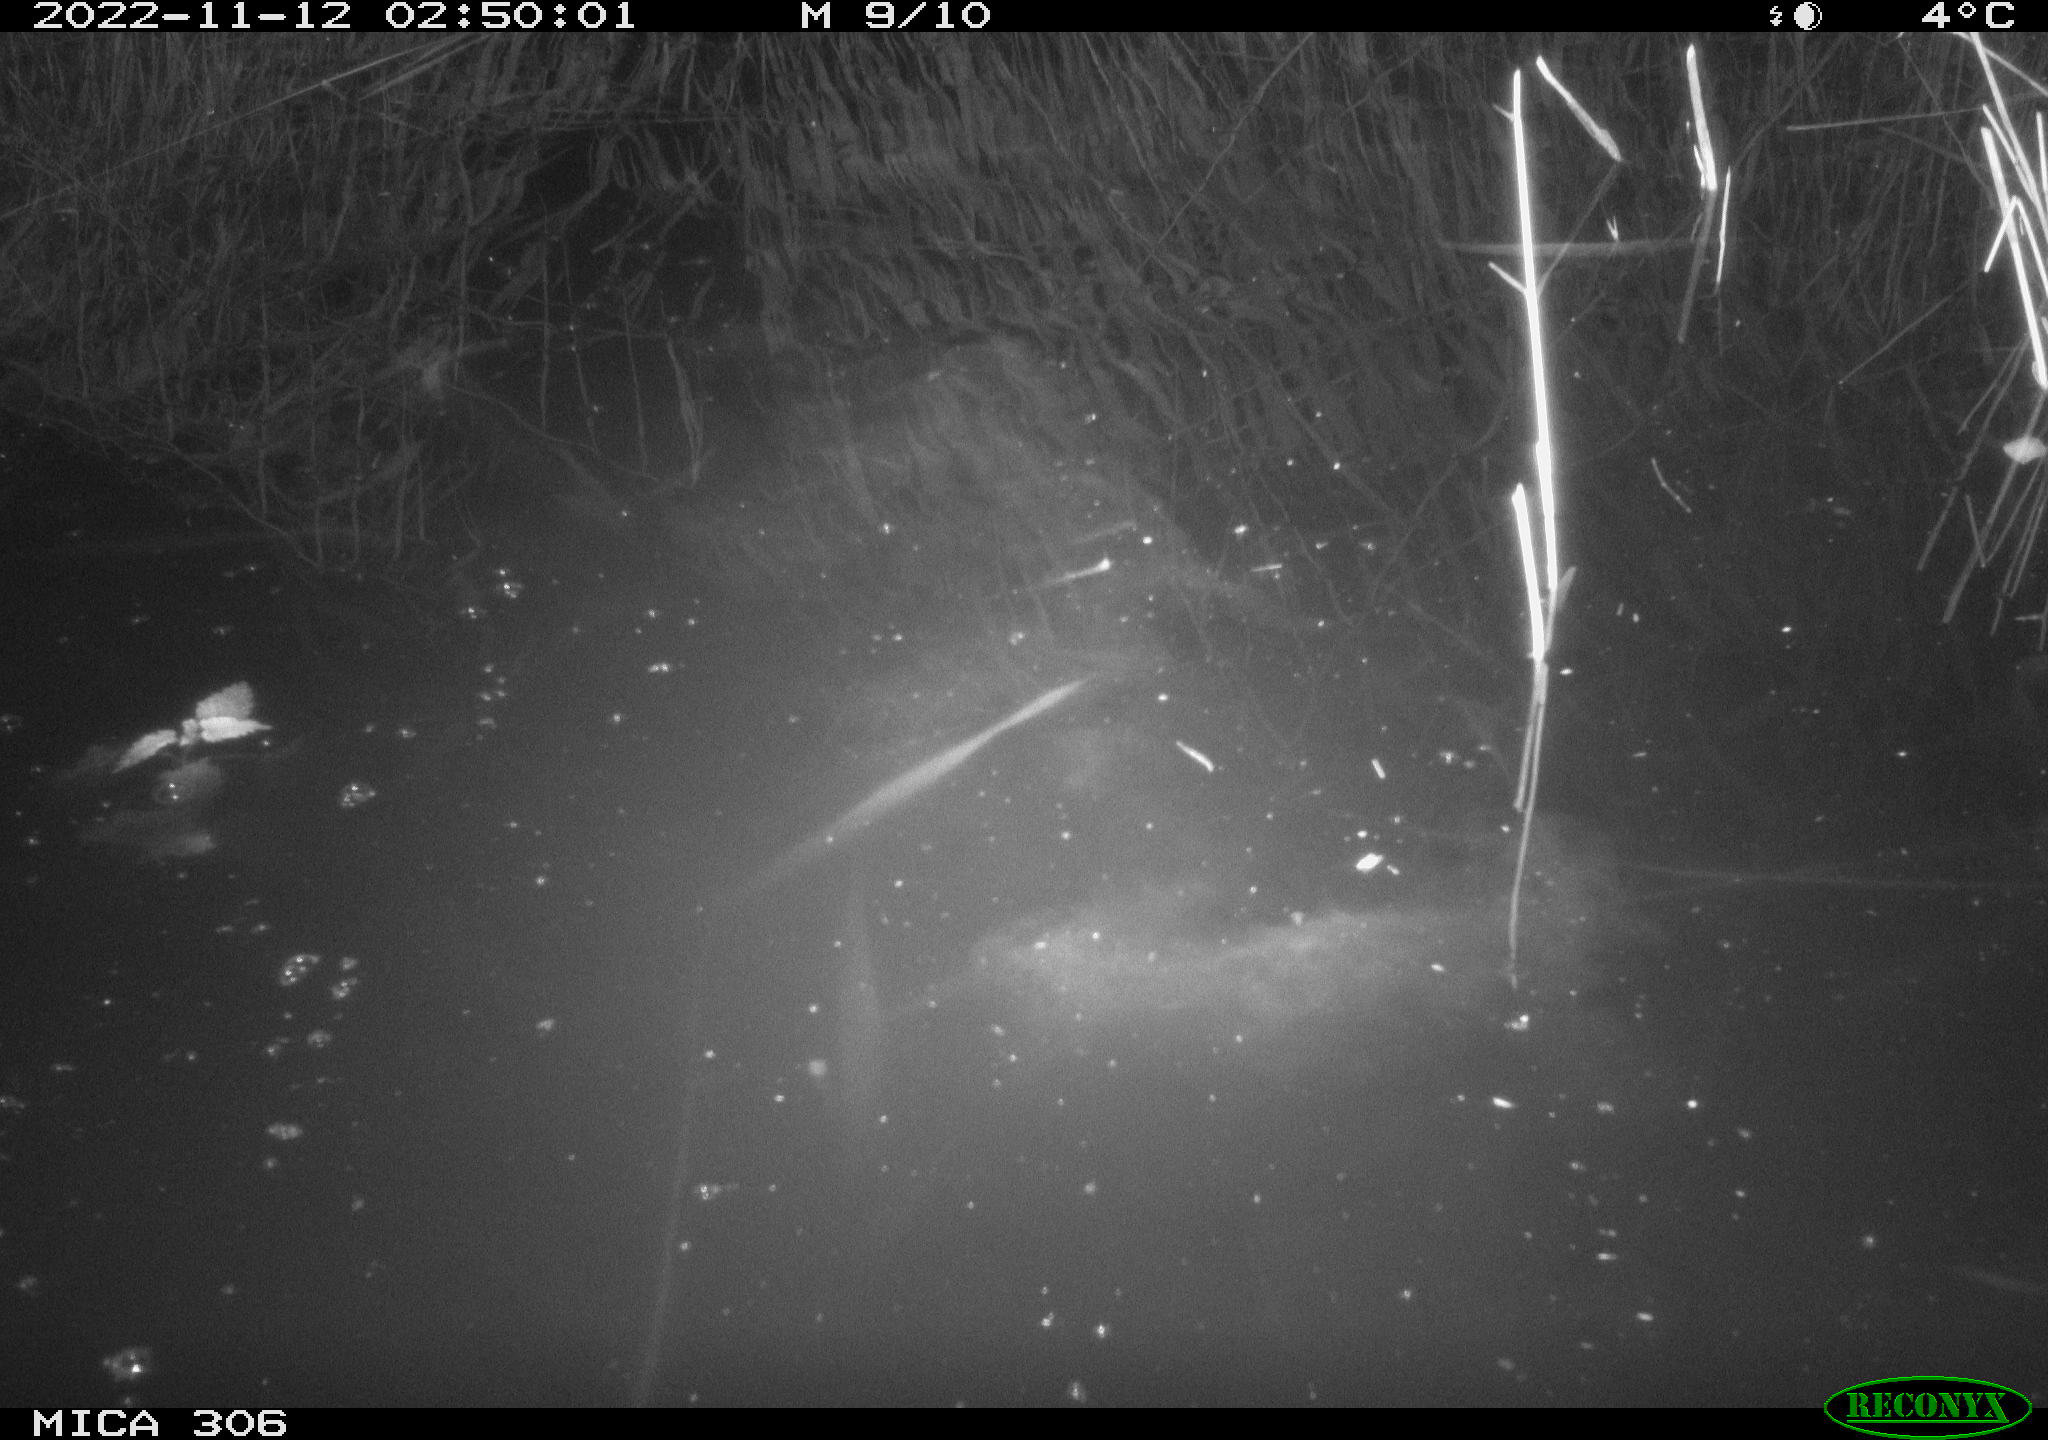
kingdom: Animalia
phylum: Chordata
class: Mammalia
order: Rodentia
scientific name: Rodentia
